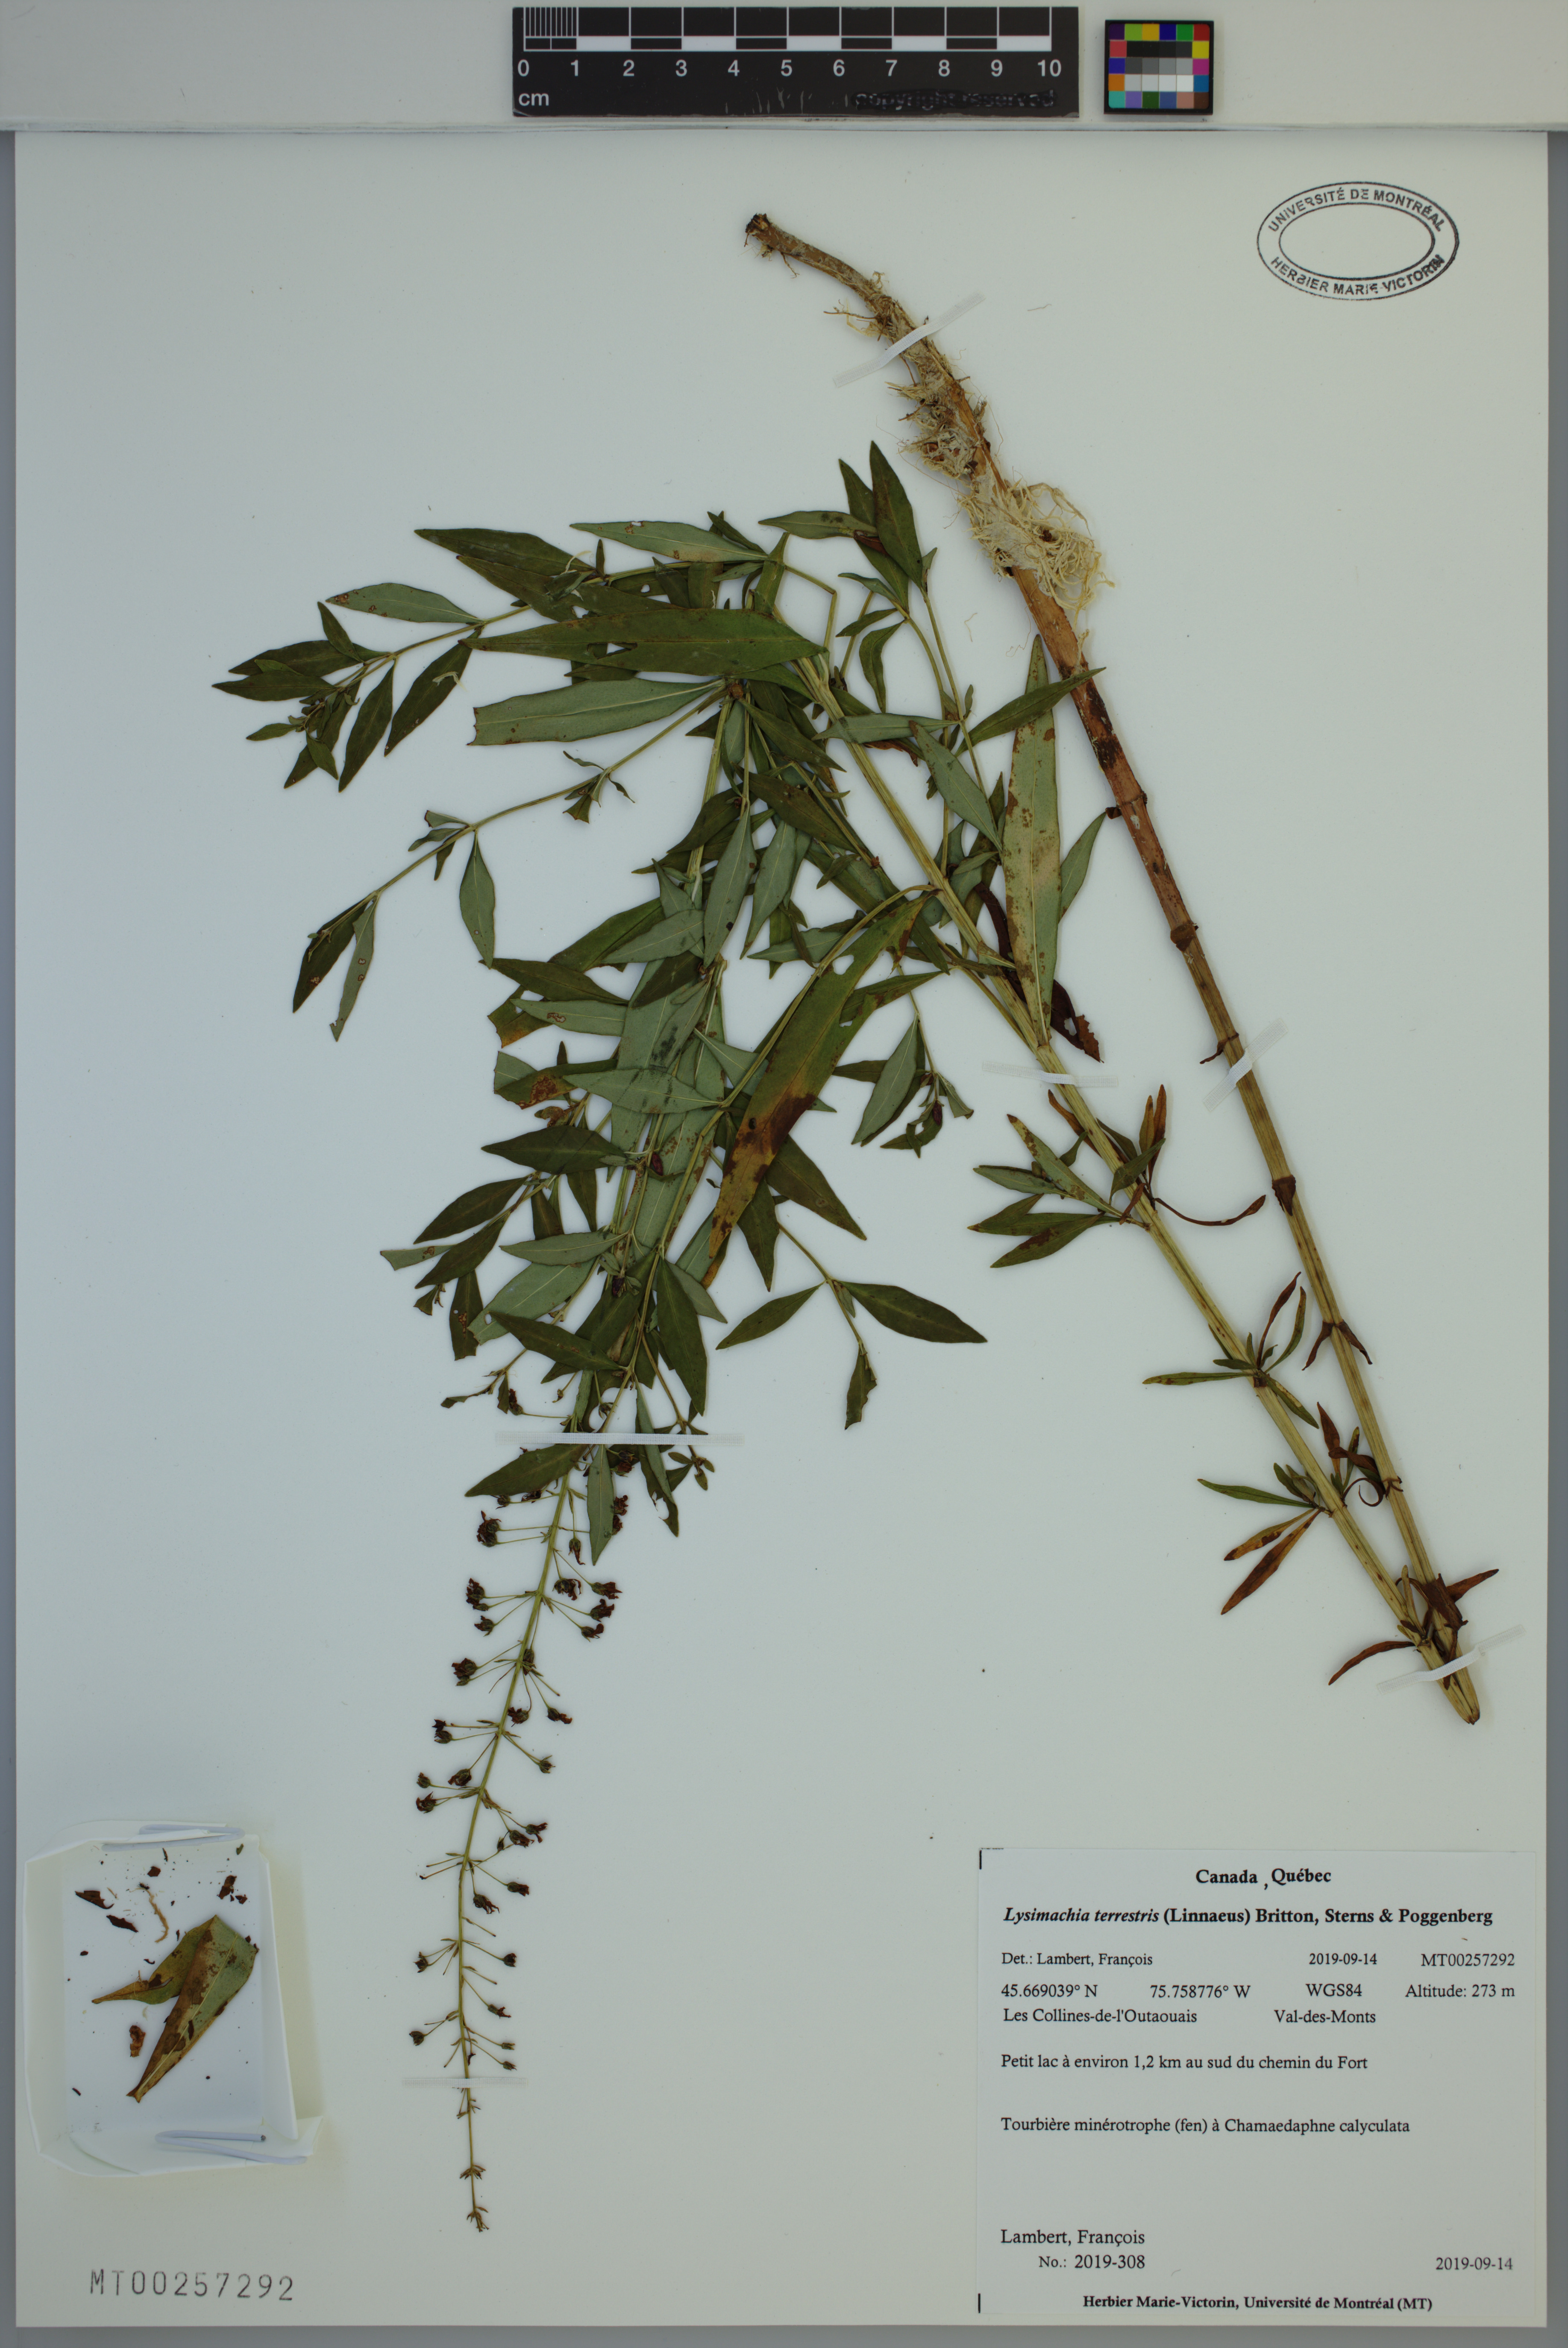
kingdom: Plantae
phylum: Tracheophyta
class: Magnoliopsida
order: Ericales
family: Primulaceae
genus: Lysimachia
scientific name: Lysimachia terrestris
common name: Lake loosestrife
